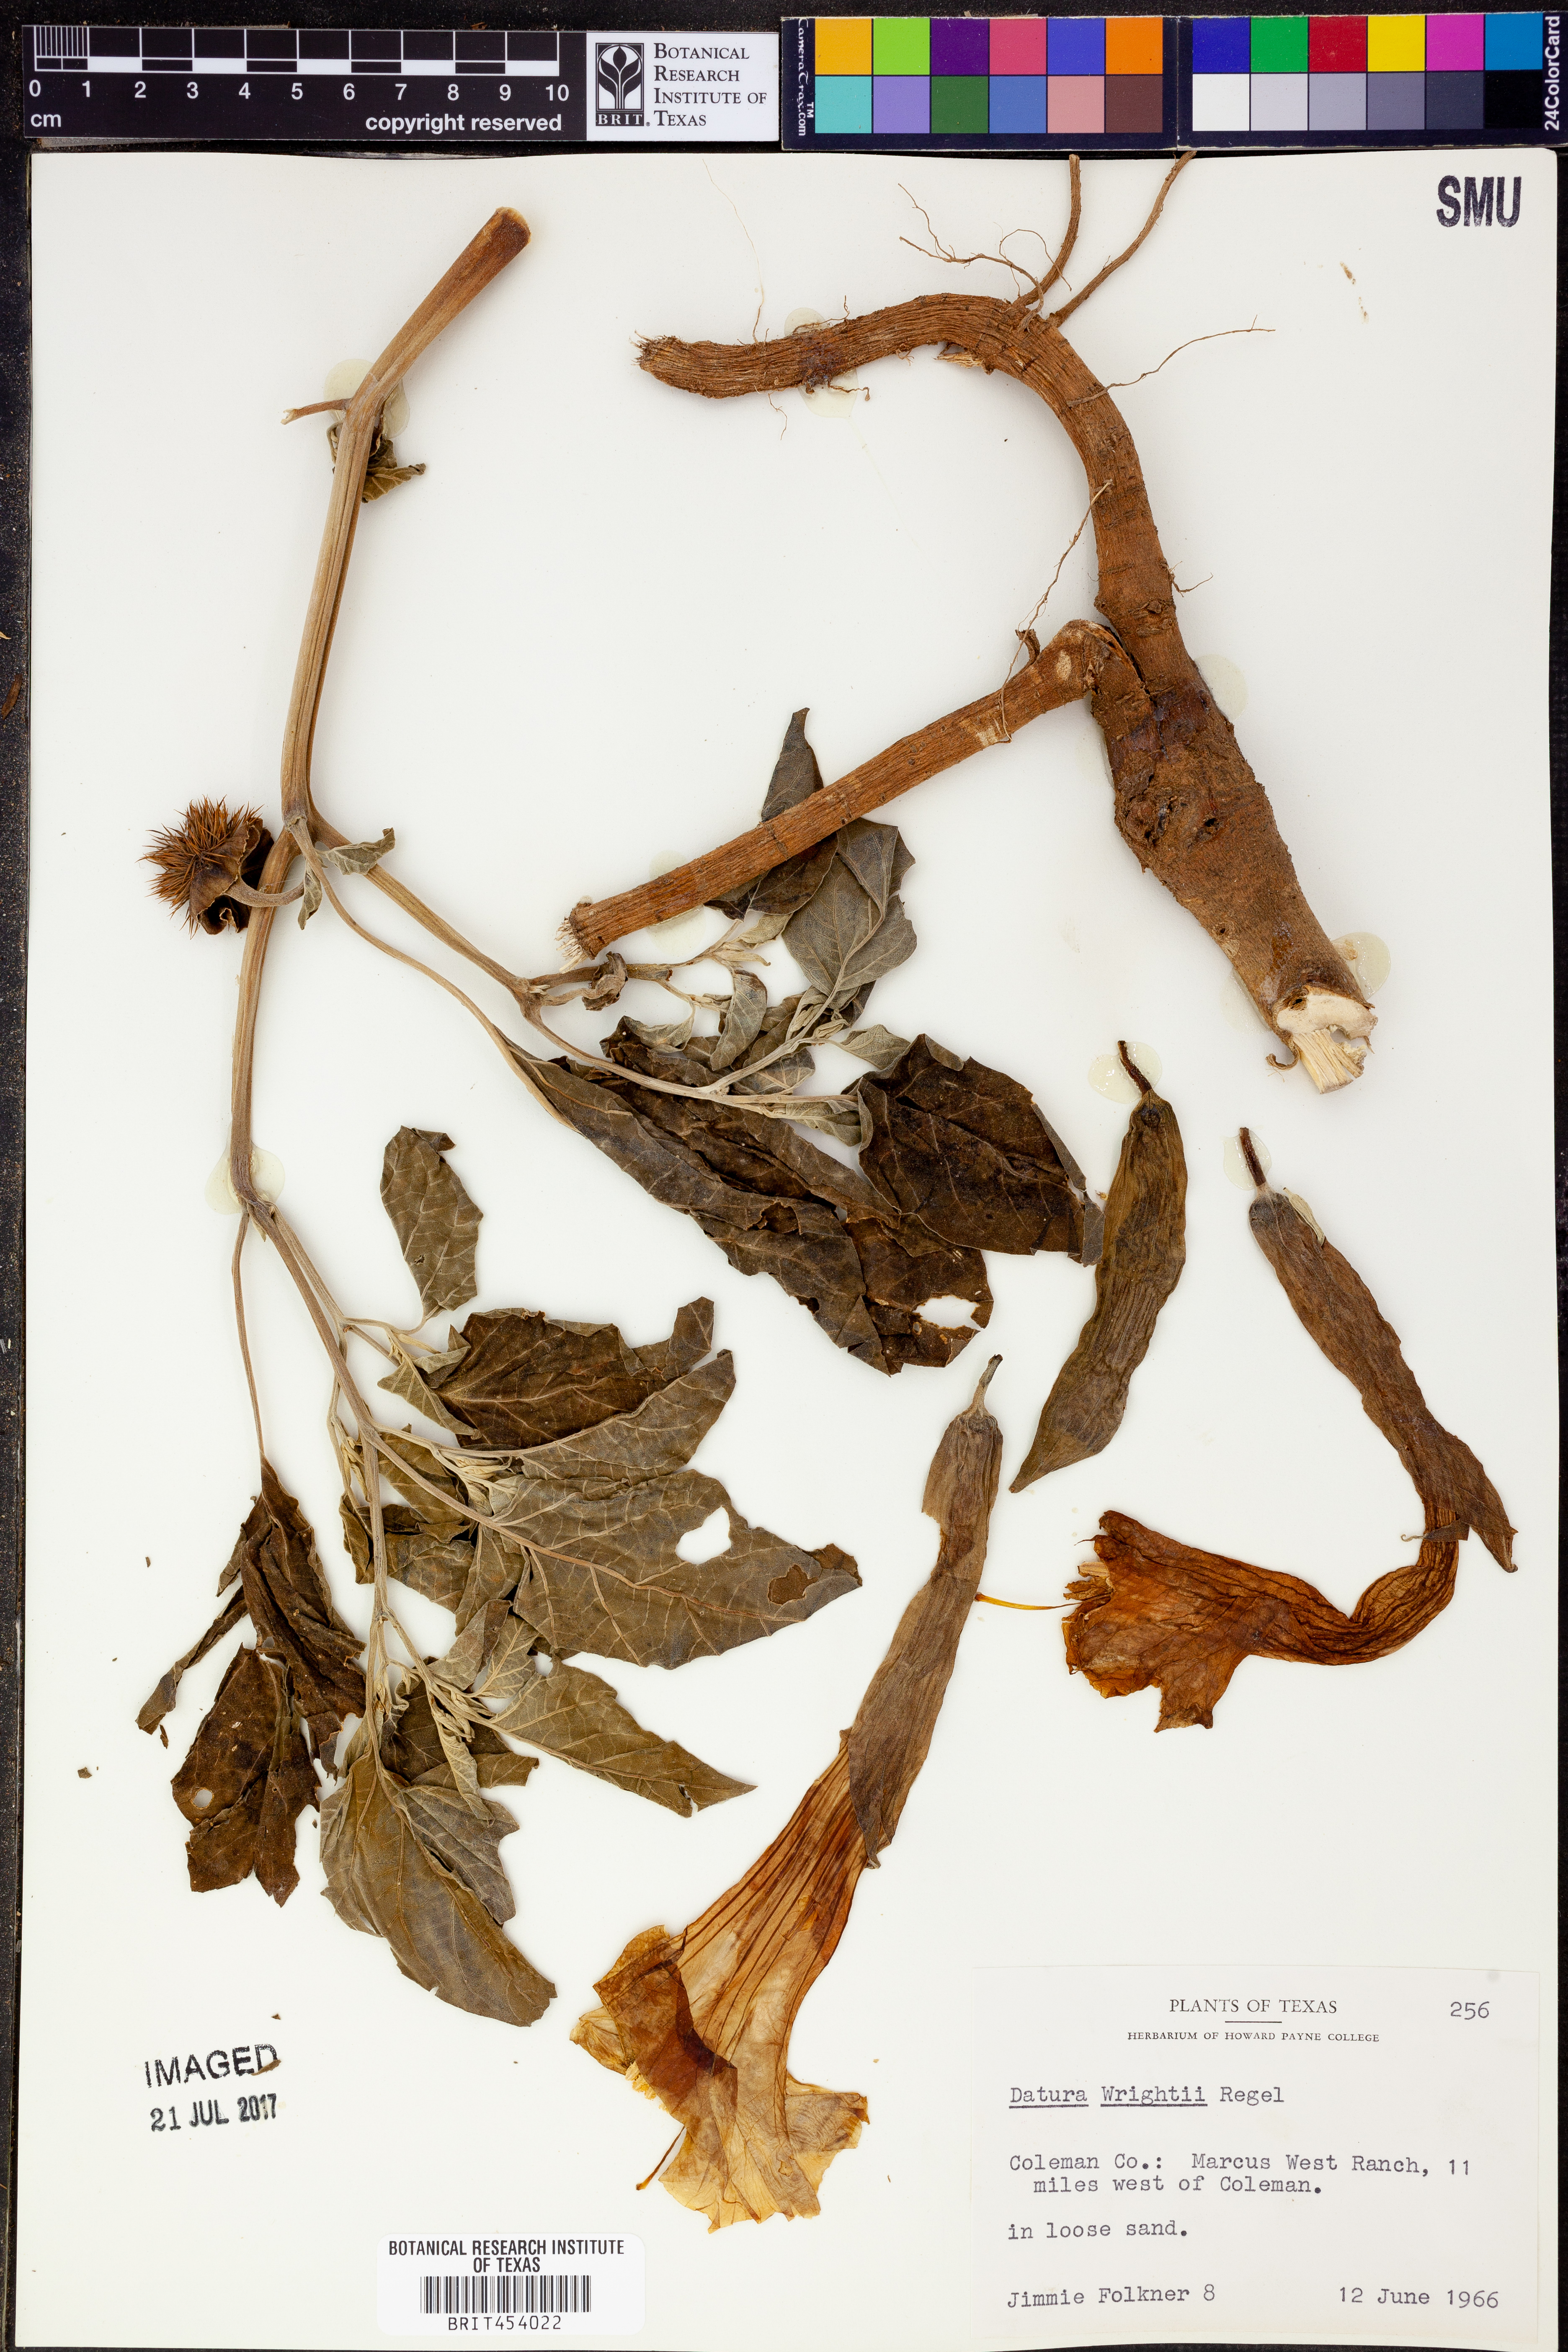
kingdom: Plantae
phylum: Tracheophyta
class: Magnoliopsida
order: Solanales
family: Solanaceae
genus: Datura
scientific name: Datura wrightii
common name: Sacred thorn-apple
